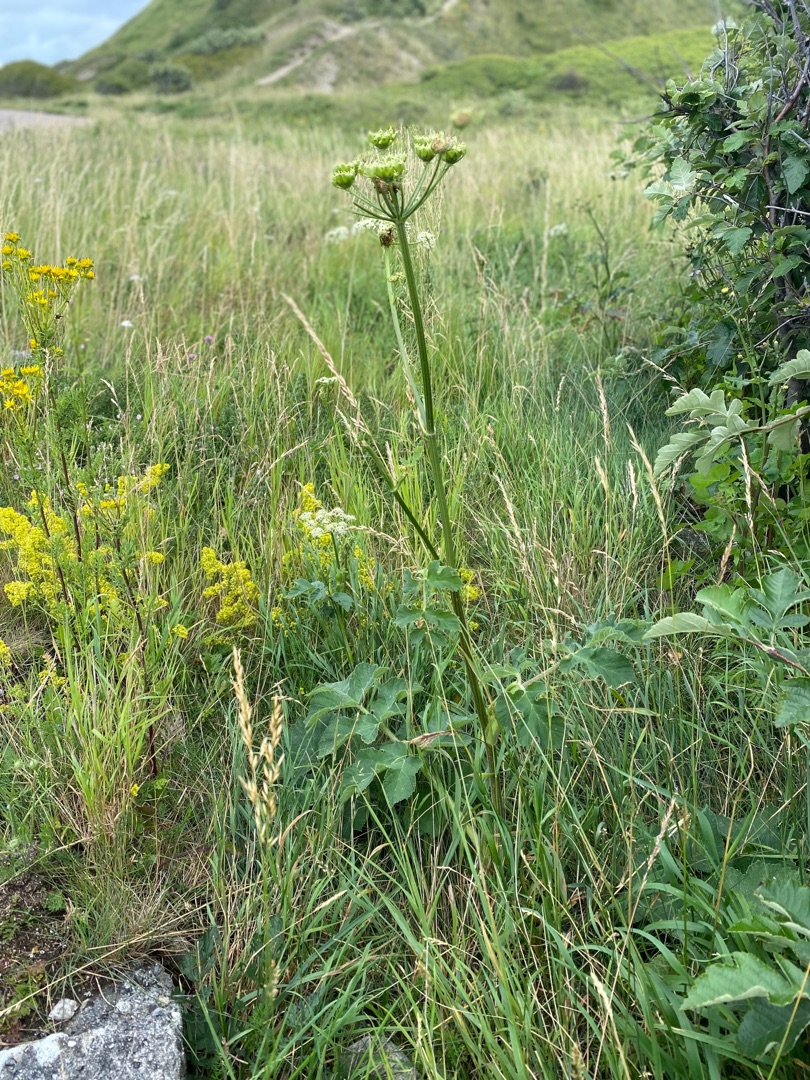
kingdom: Plantae
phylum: Tracheophyta
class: Magnoliopsida
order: Apiales
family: Apiaceae
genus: Heracleum
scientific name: Heracleum sphondylium
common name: Almindelig bjørneklo
